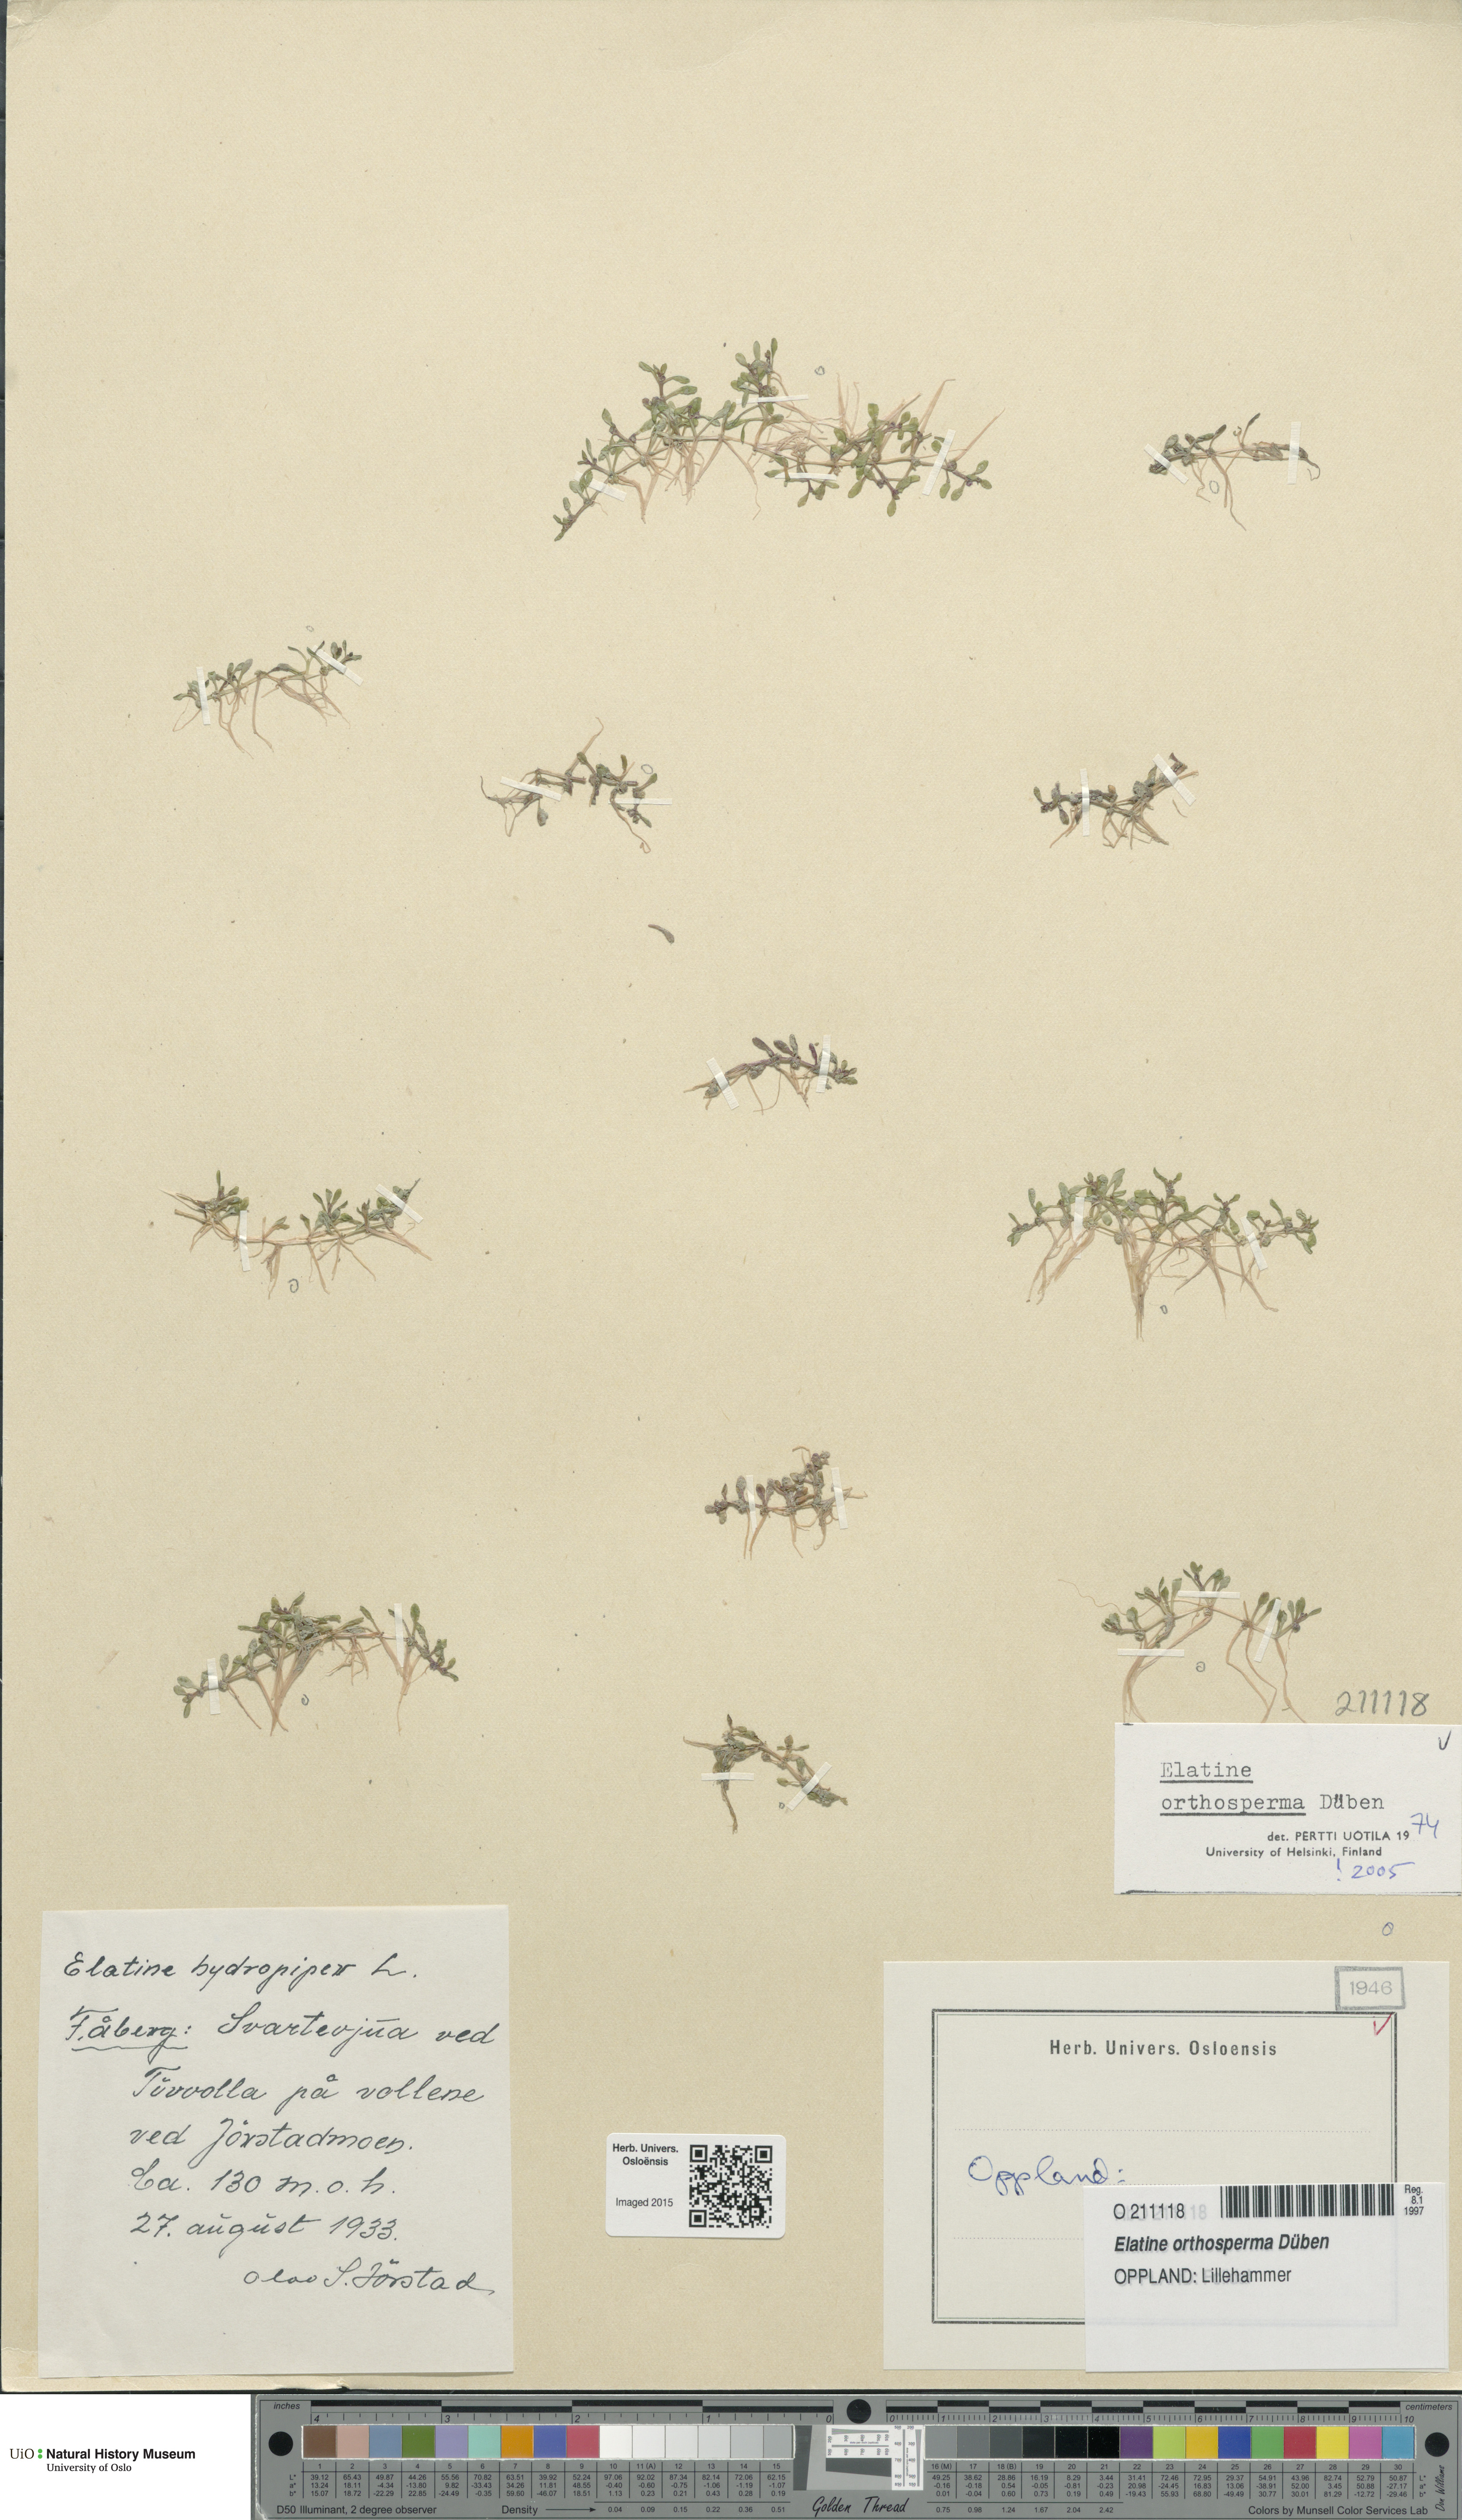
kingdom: Plantae
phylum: Tracheophyta
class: Magnoliopsida
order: Malpighiales
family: Elatinaceae
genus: Elatine
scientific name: Elatine orthosperma
